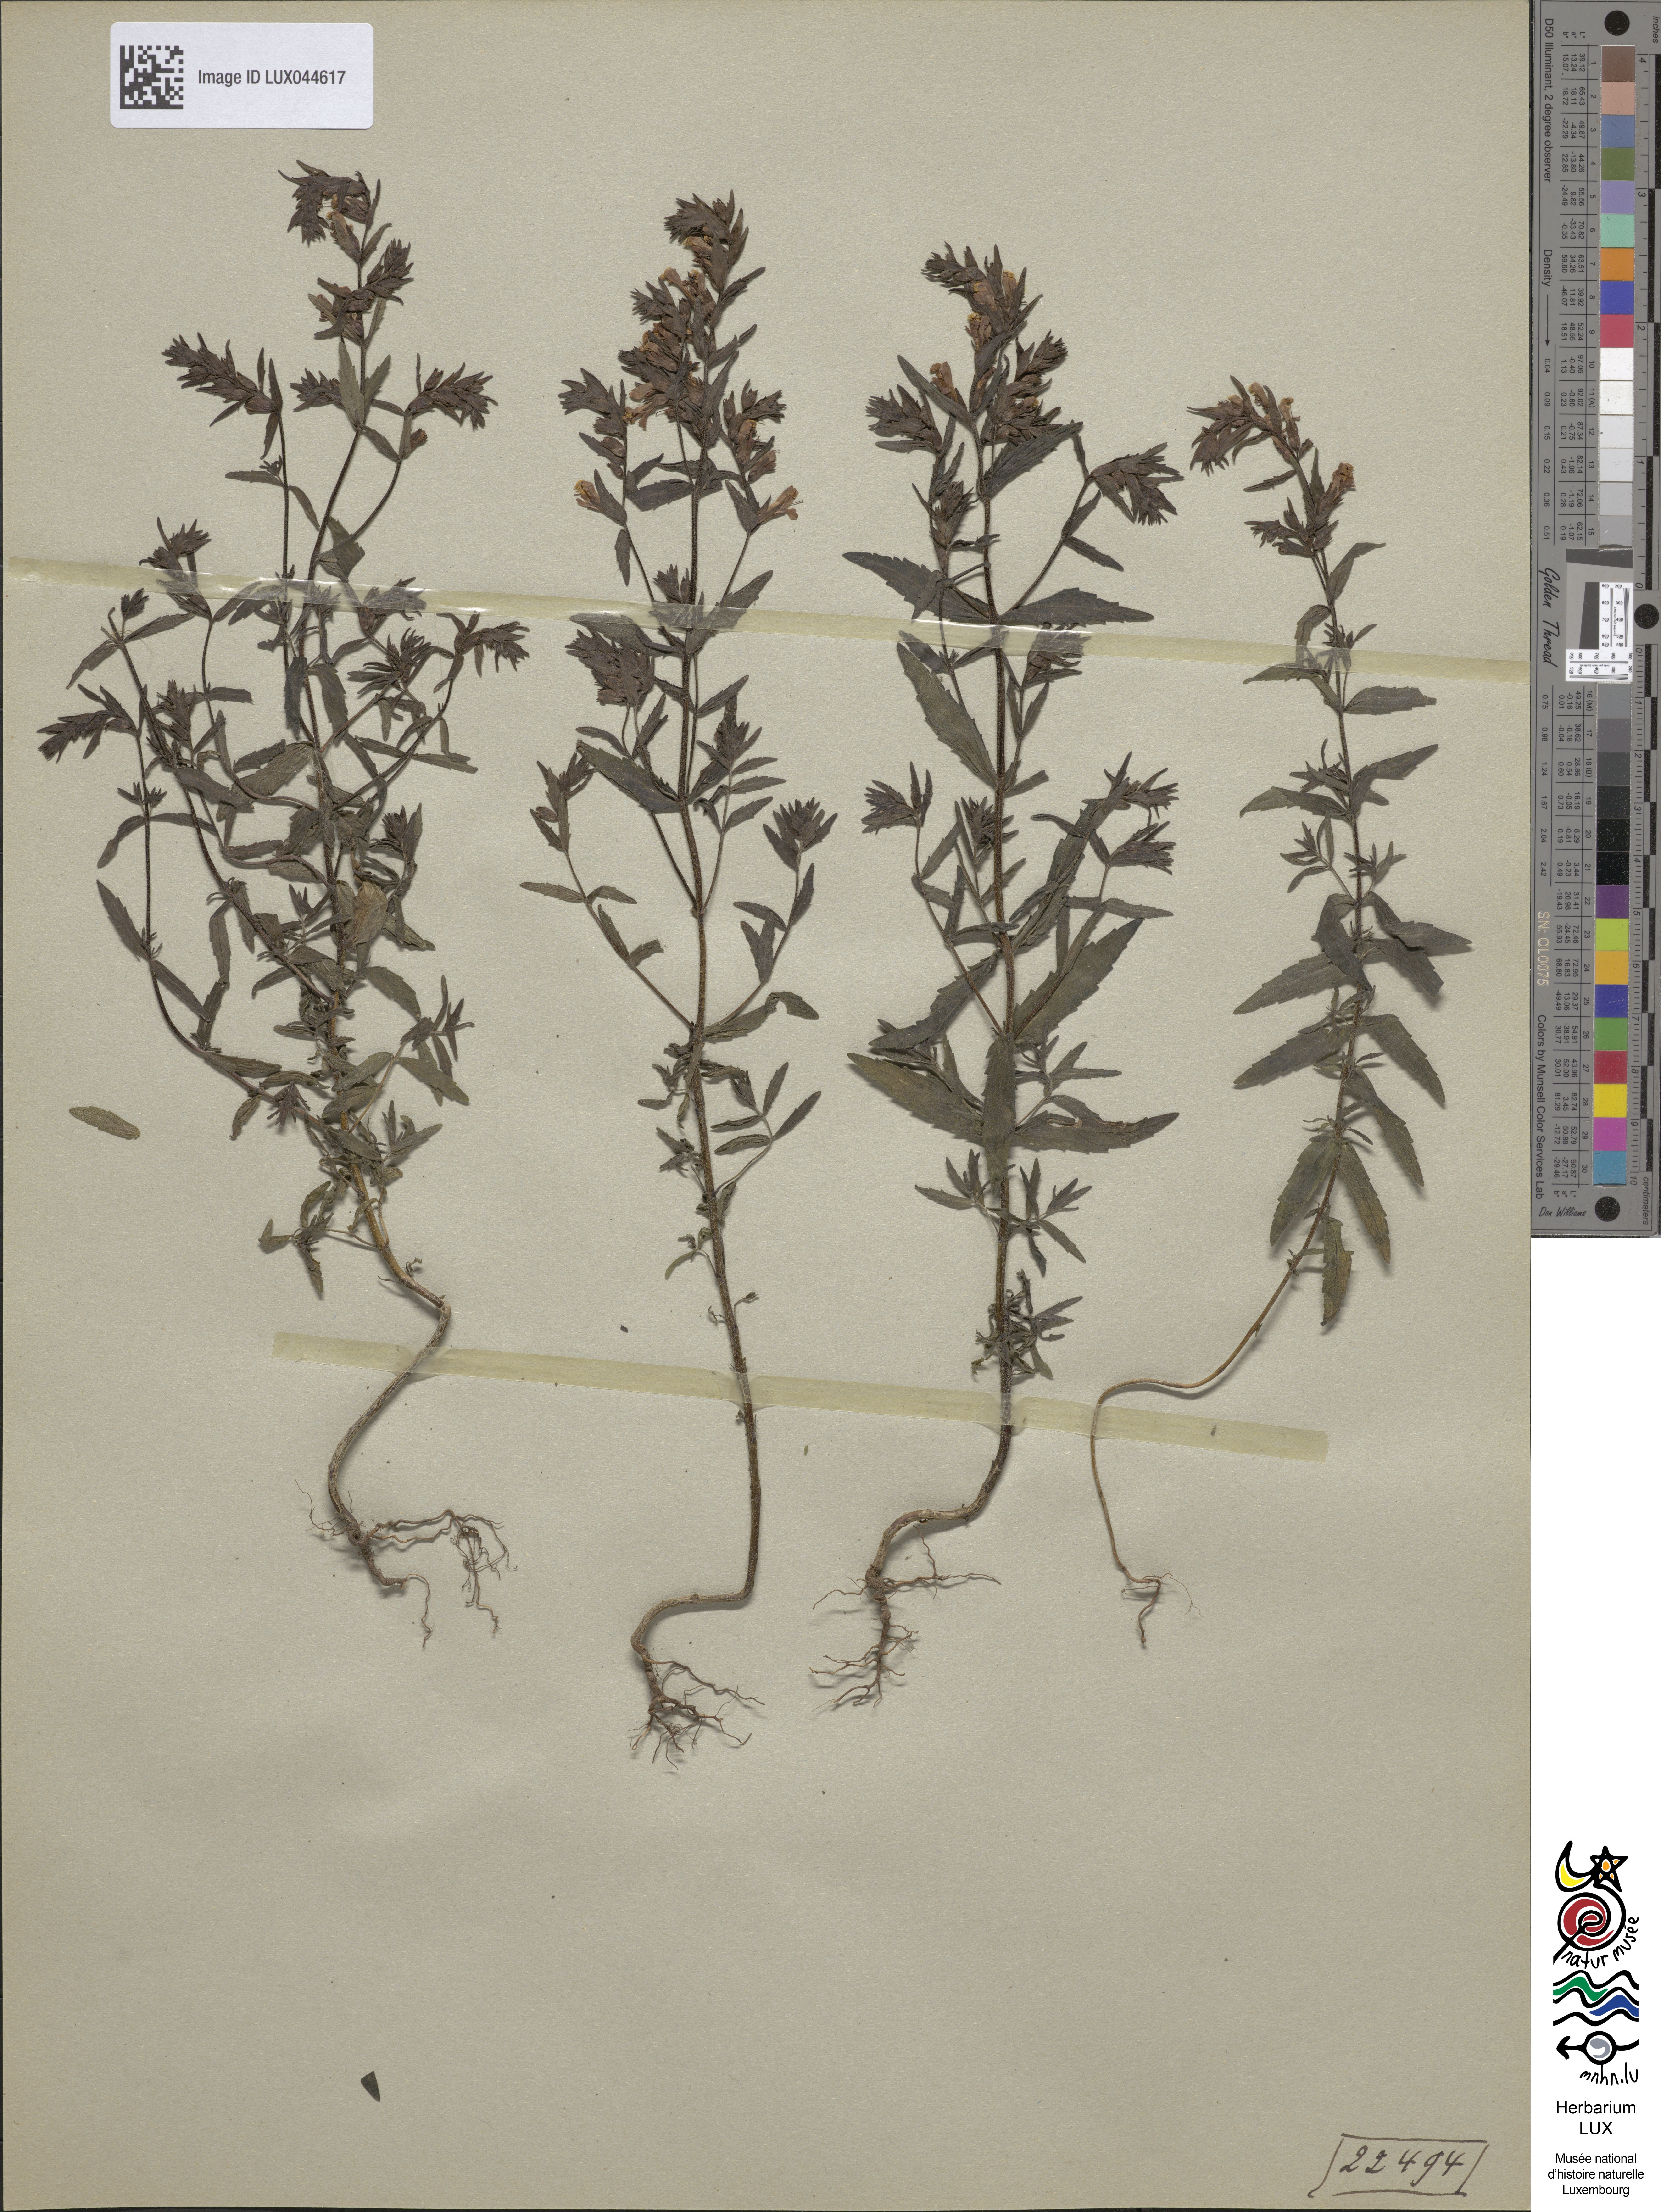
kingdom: Plantae
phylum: Tracheophyta
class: Magnoliopsida
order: Lamiales
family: Orobanchaceae
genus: Odontites
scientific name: Odontites vulgaris
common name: Broomrape
